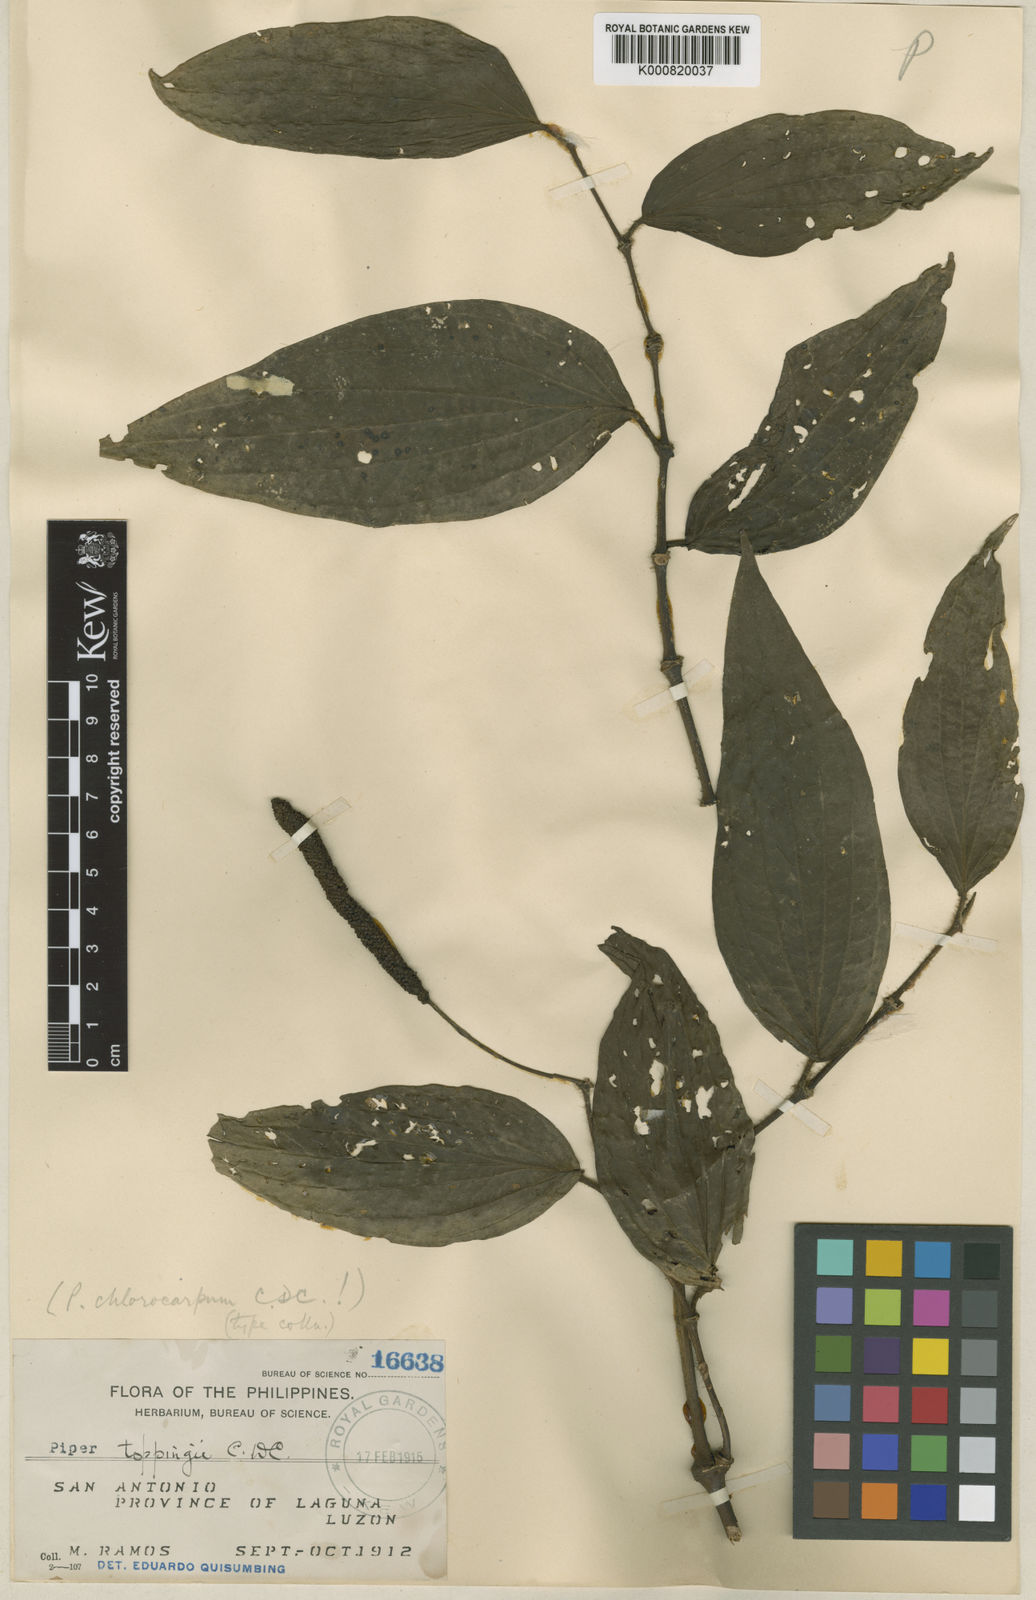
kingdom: Plantae
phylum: Tracheophyta
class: Magnoliopsida
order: Piperales
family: Piperaceae
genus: Piper
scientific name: Piper toppingii
